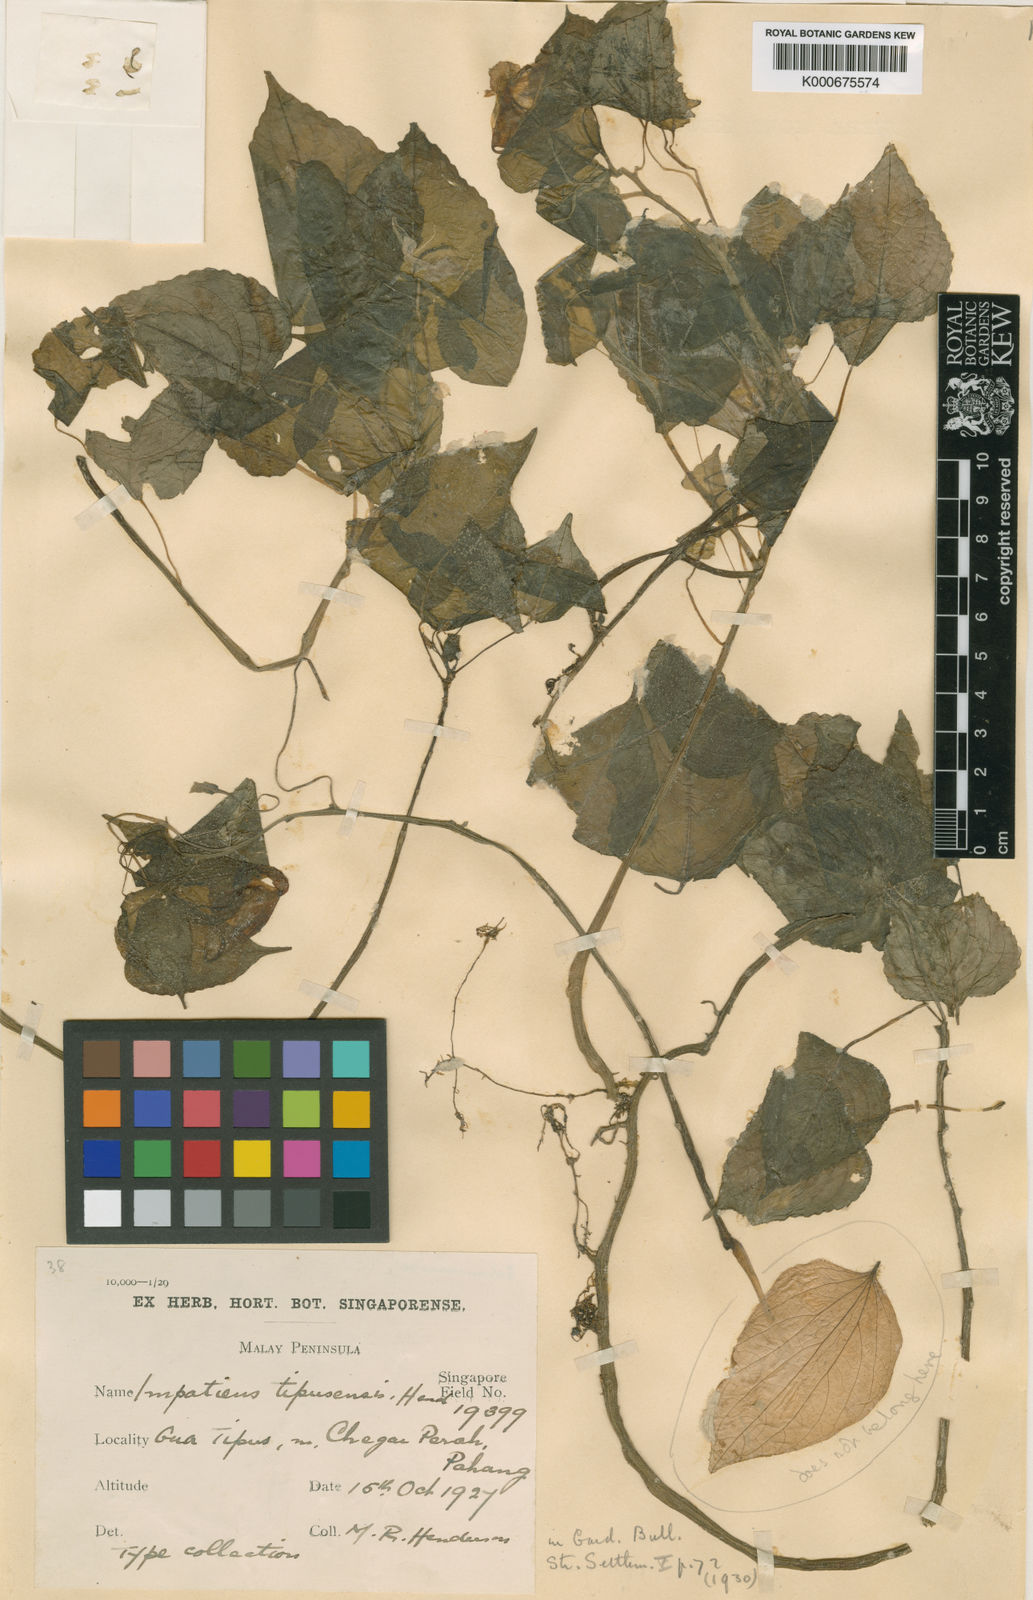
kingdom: Plantae
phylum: Tracheophyta
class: Magnoliopsida
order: Ericales
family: Balsaminaceae
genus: Impatiens
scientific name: Impatiens tipusensis
